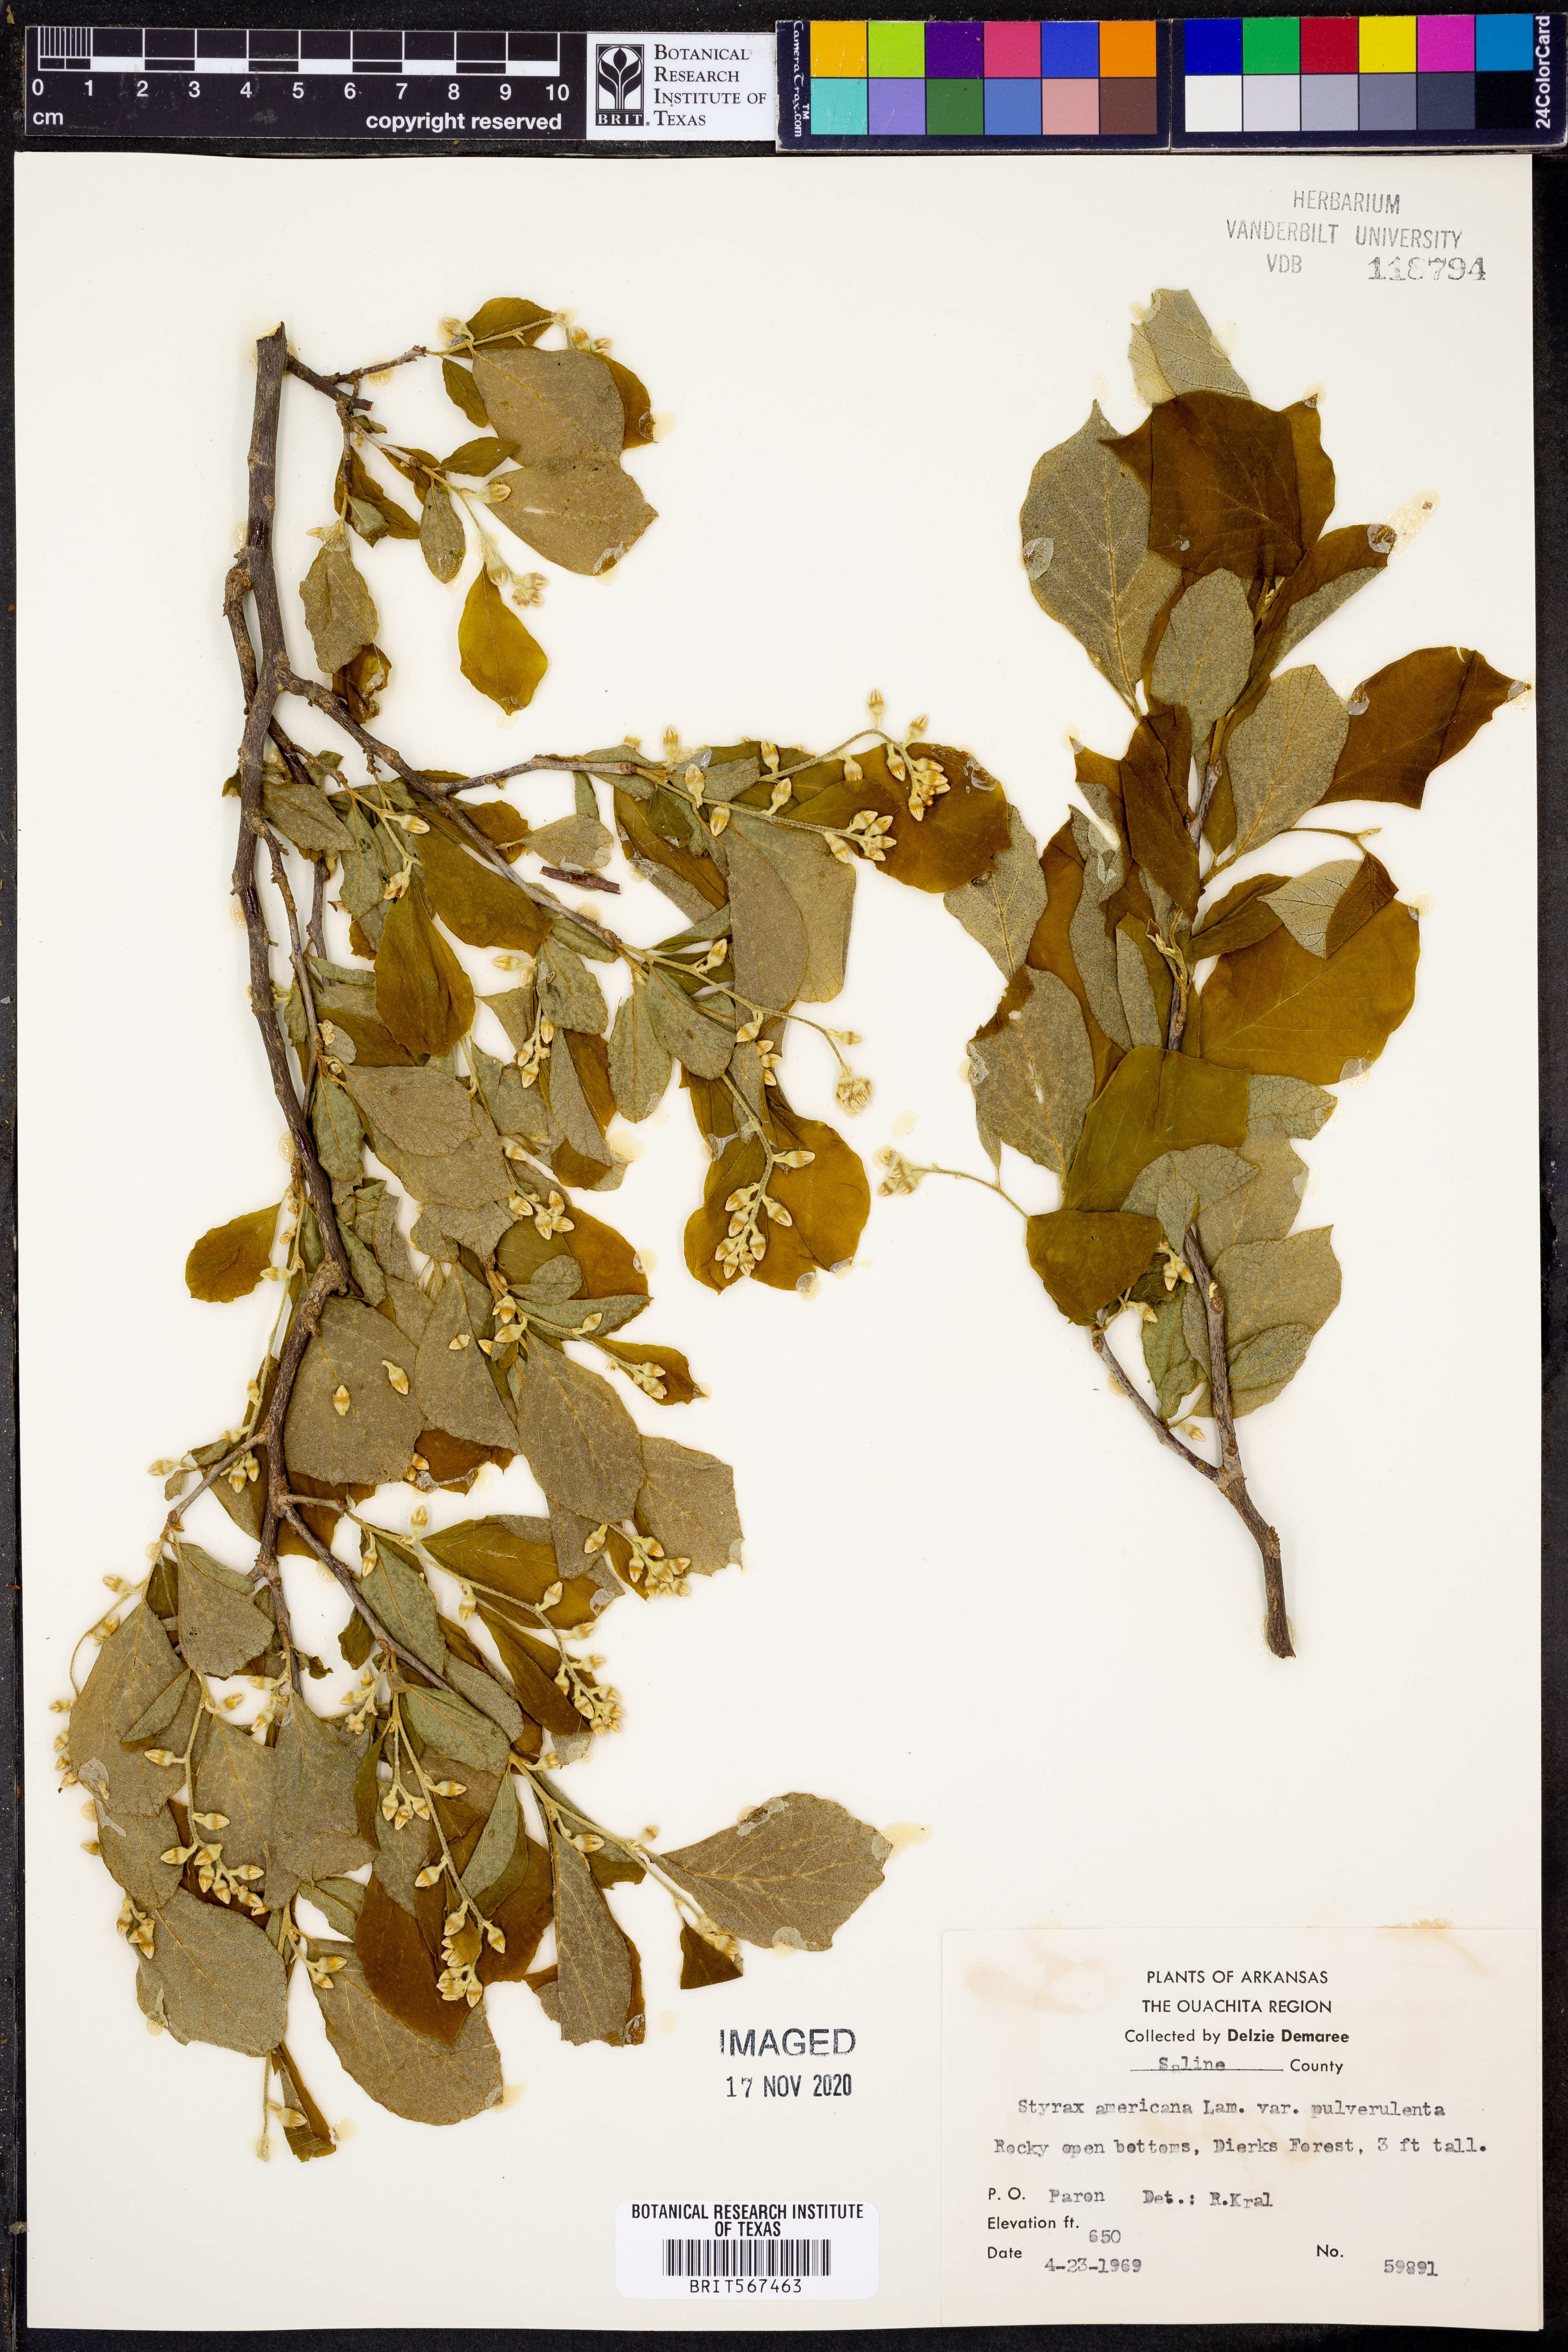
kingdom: Plantae
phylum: Tracheophyta
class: Magnoliopsida
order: Ericales
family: Styracaceae
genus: Styrax
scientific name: Styrax americanus
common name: American snowbell
